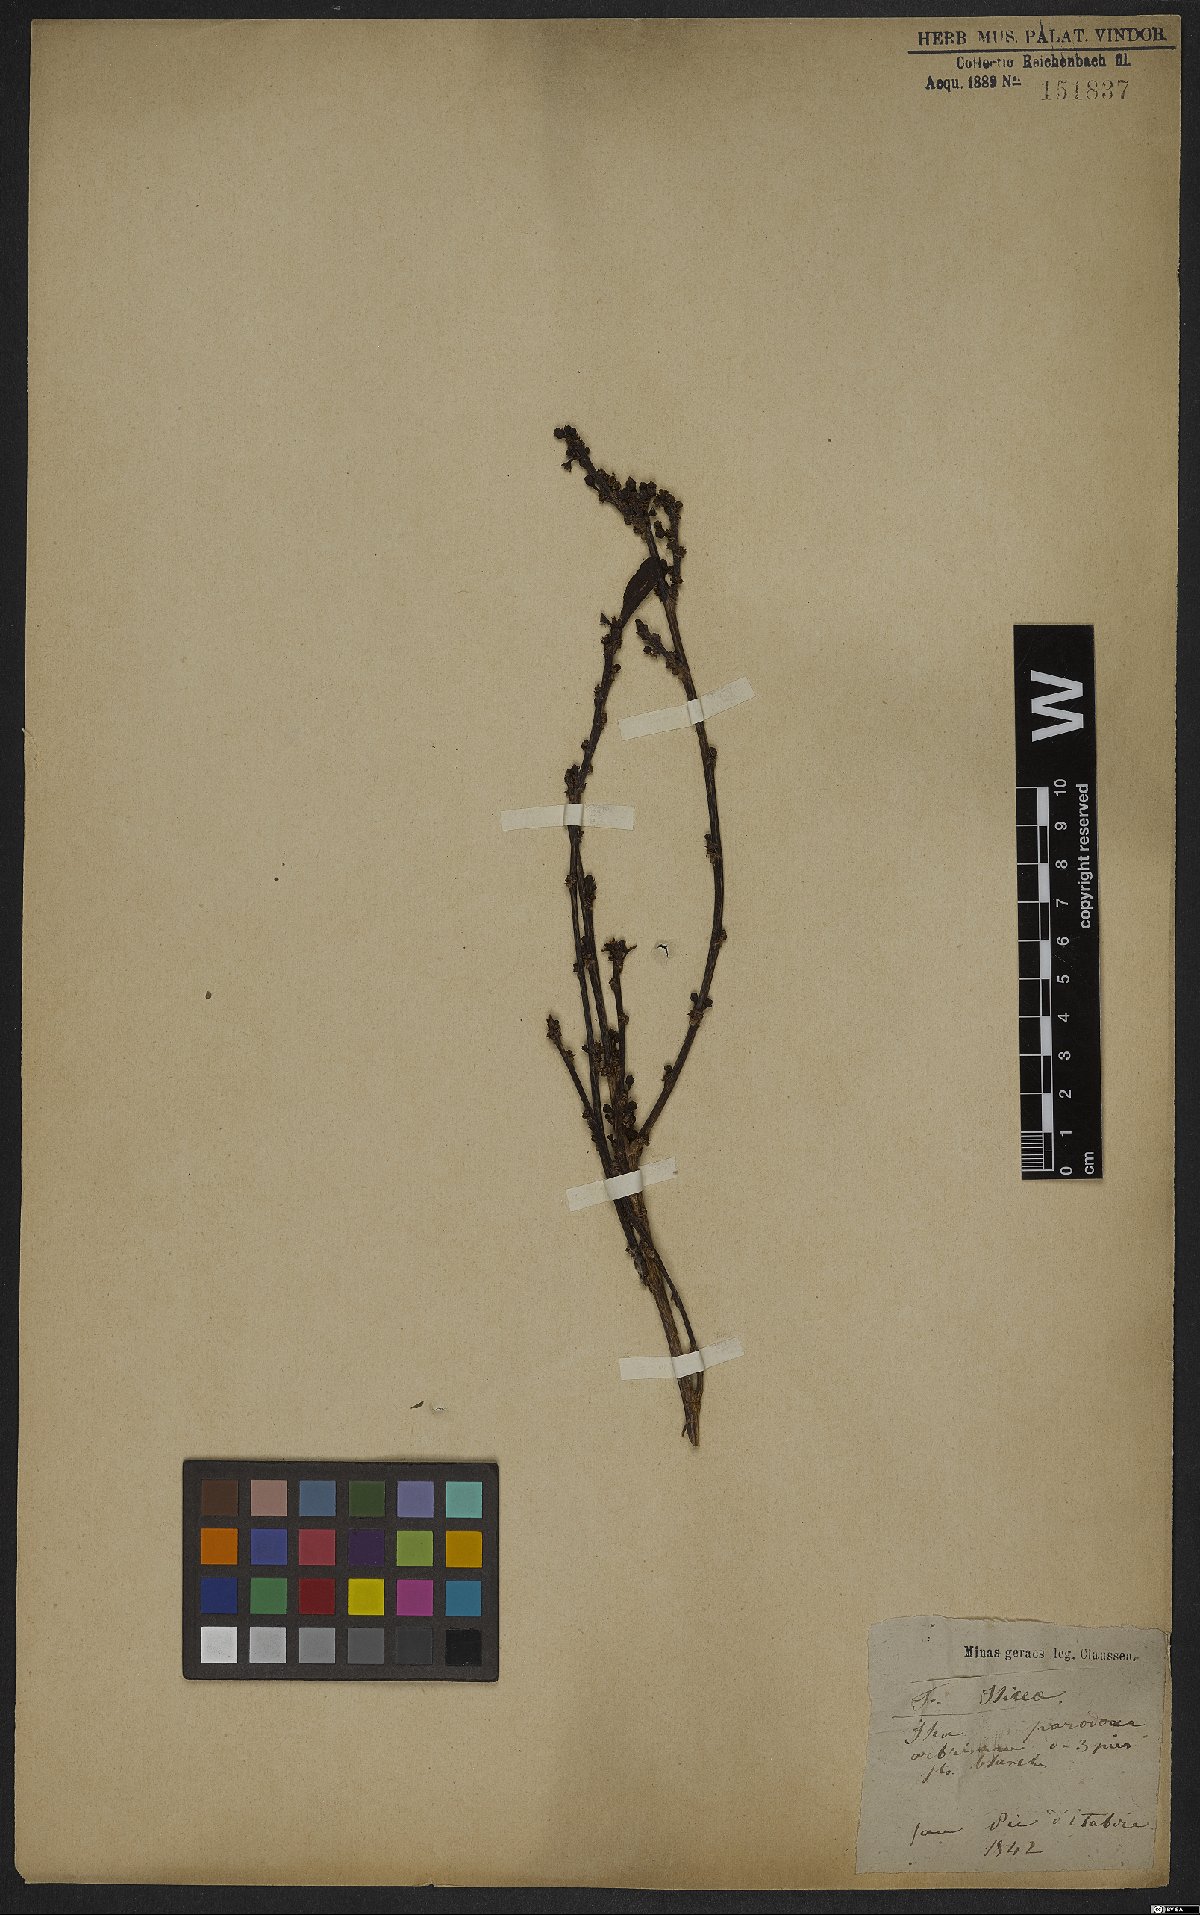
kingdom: Plantae
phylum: Tracheophyta
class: Magnoliopsida
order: Aquifoliales
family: Aquifoliaceae
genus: Ilex
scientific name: Ilex
